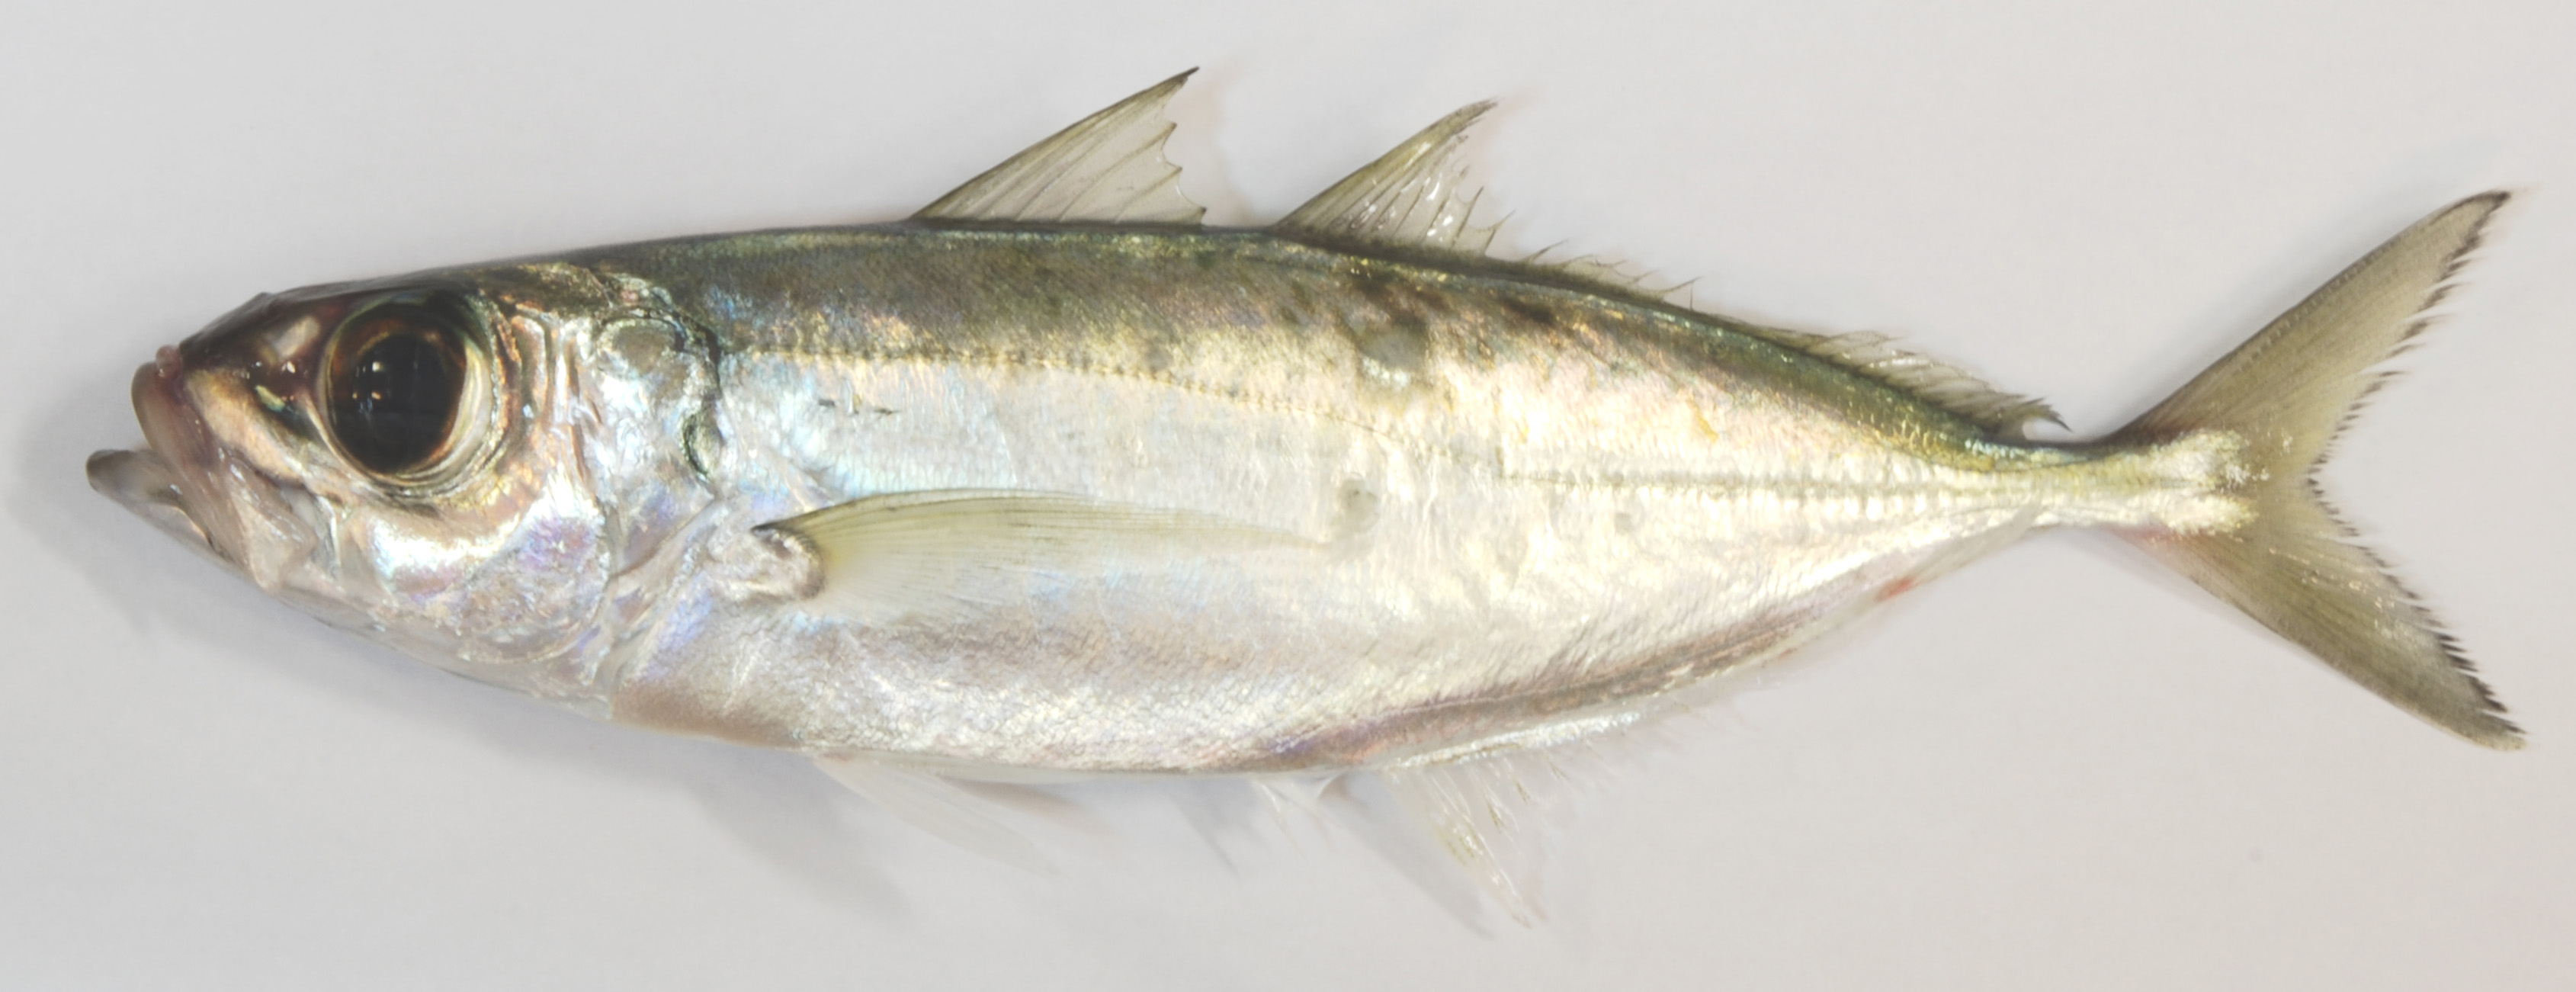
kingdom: Animalia
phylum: Chordata
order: Perciformes
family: Carangidae
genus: Selar
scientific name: Selar crumenophthalmus
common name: Bigeye scad
